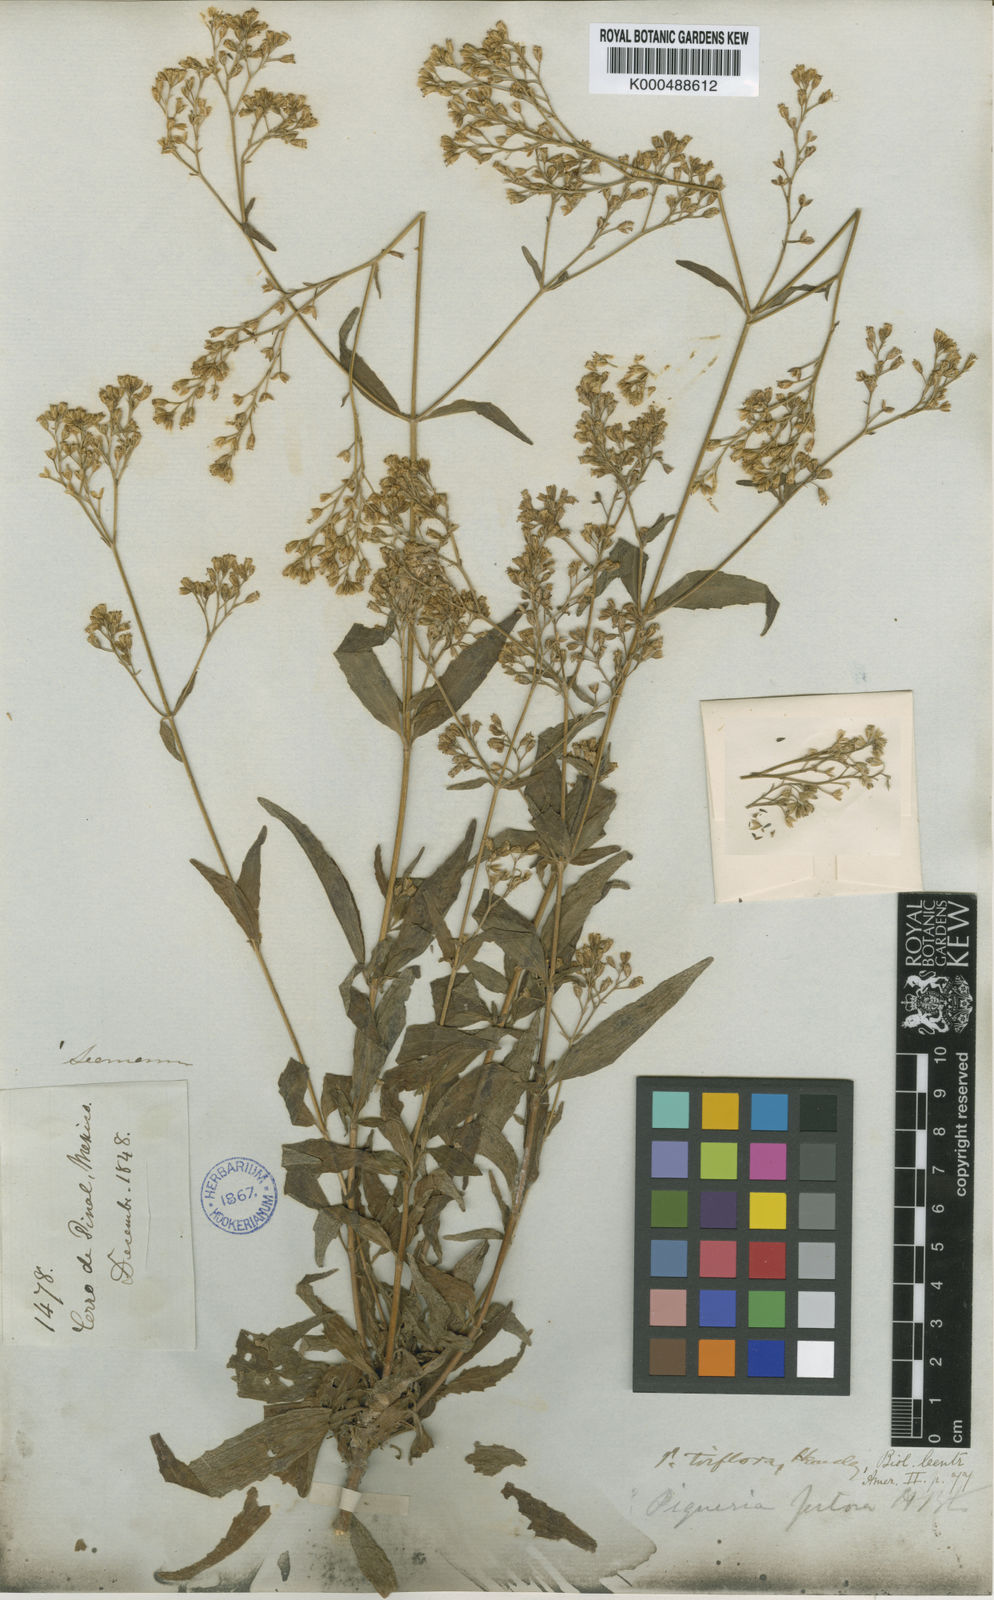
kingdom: Plantae
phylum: Tracheophyta
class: Magnoliopsida
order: Asterales
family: Asteraceae
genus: Piqueria
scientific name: Piqueria triflora
